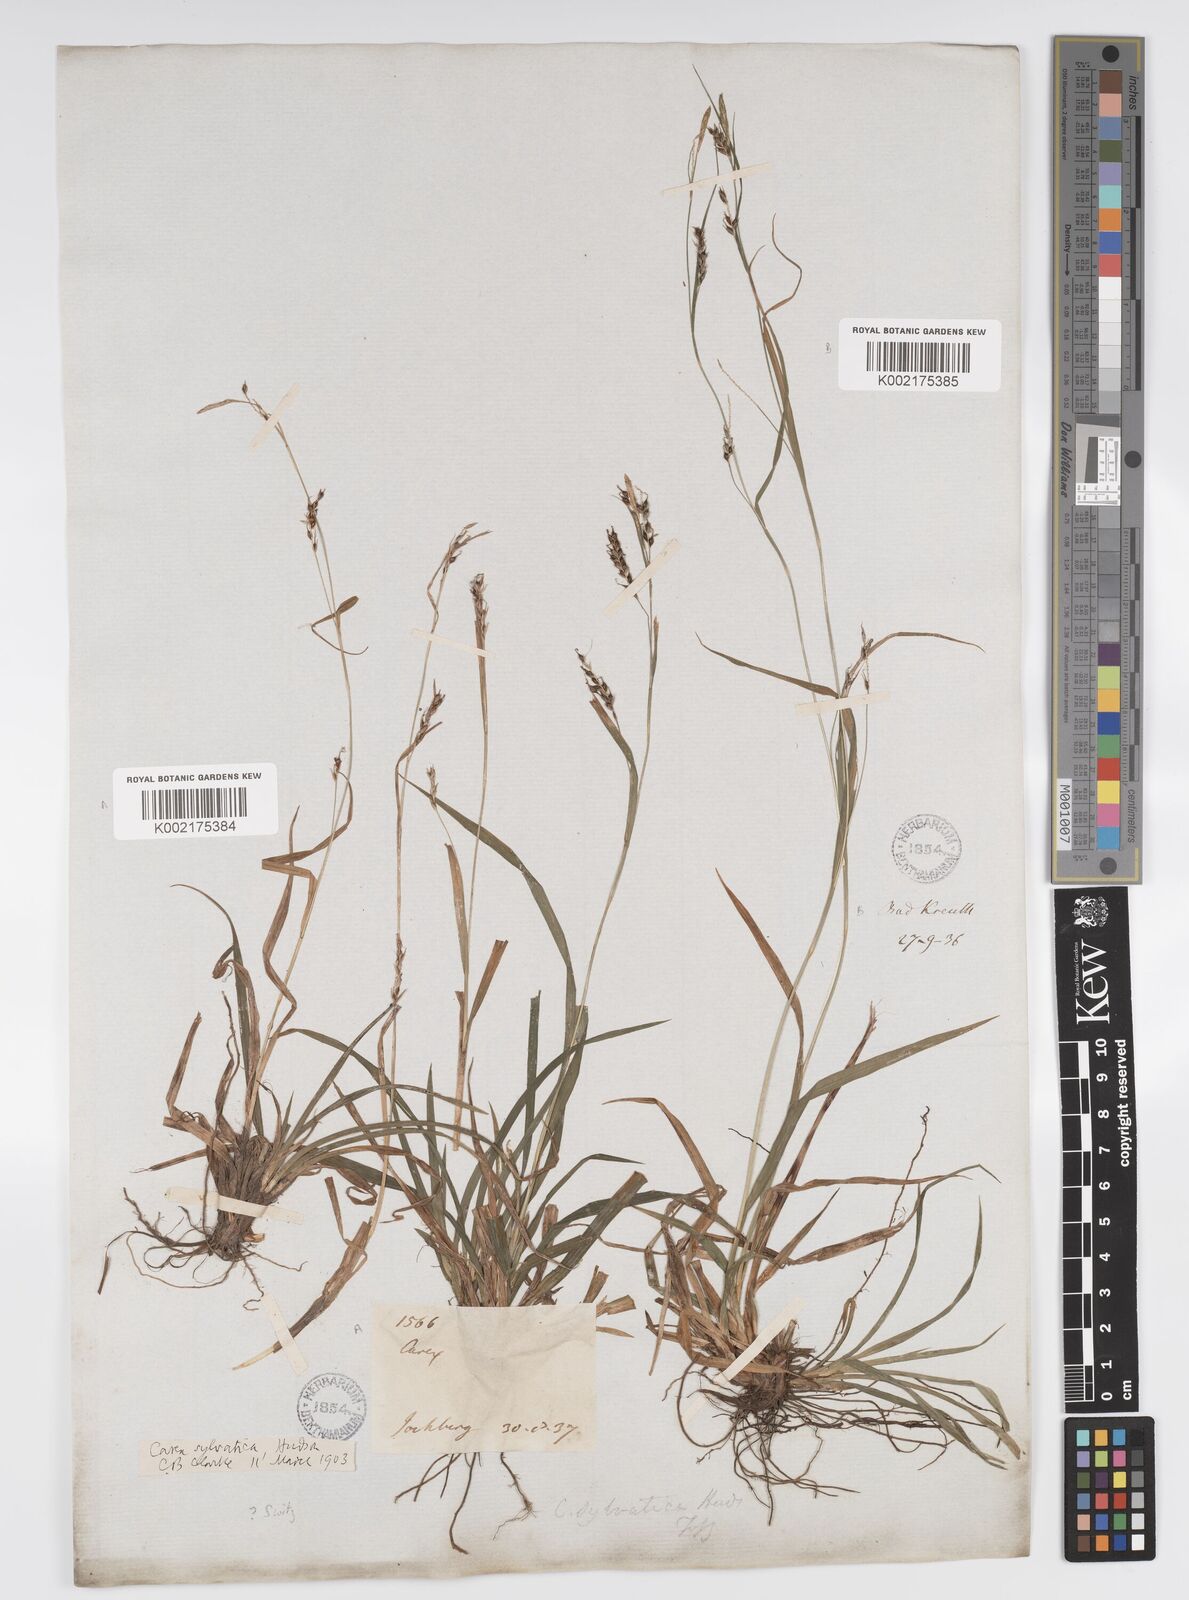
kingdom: Plantae
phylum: Tracheophyta
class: Liliopsida
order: Poales
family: Cyperaceae
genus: Carex
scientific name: Carex sylvatica
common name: Wood-sedge
